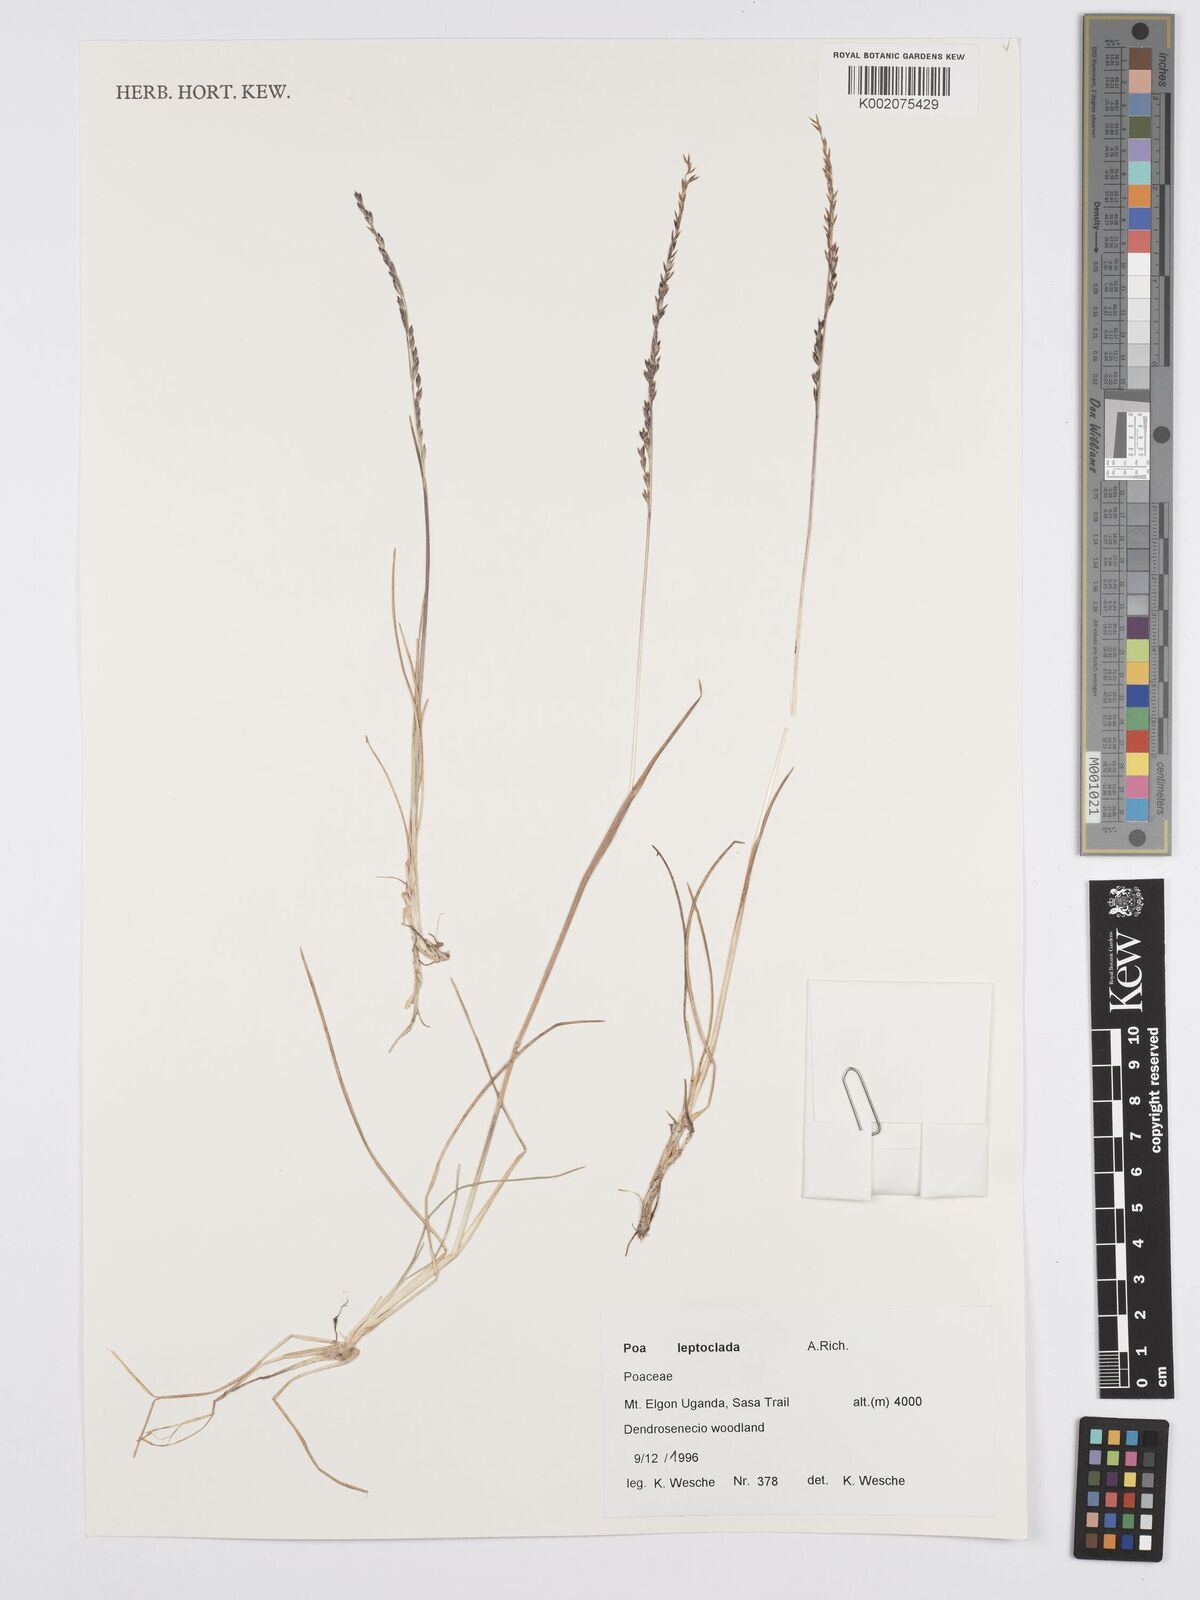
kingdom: Plantae
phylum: Tracheophyta
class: Liliopsida
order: Poales
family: Poaceae
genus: Poa
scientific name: Poa
